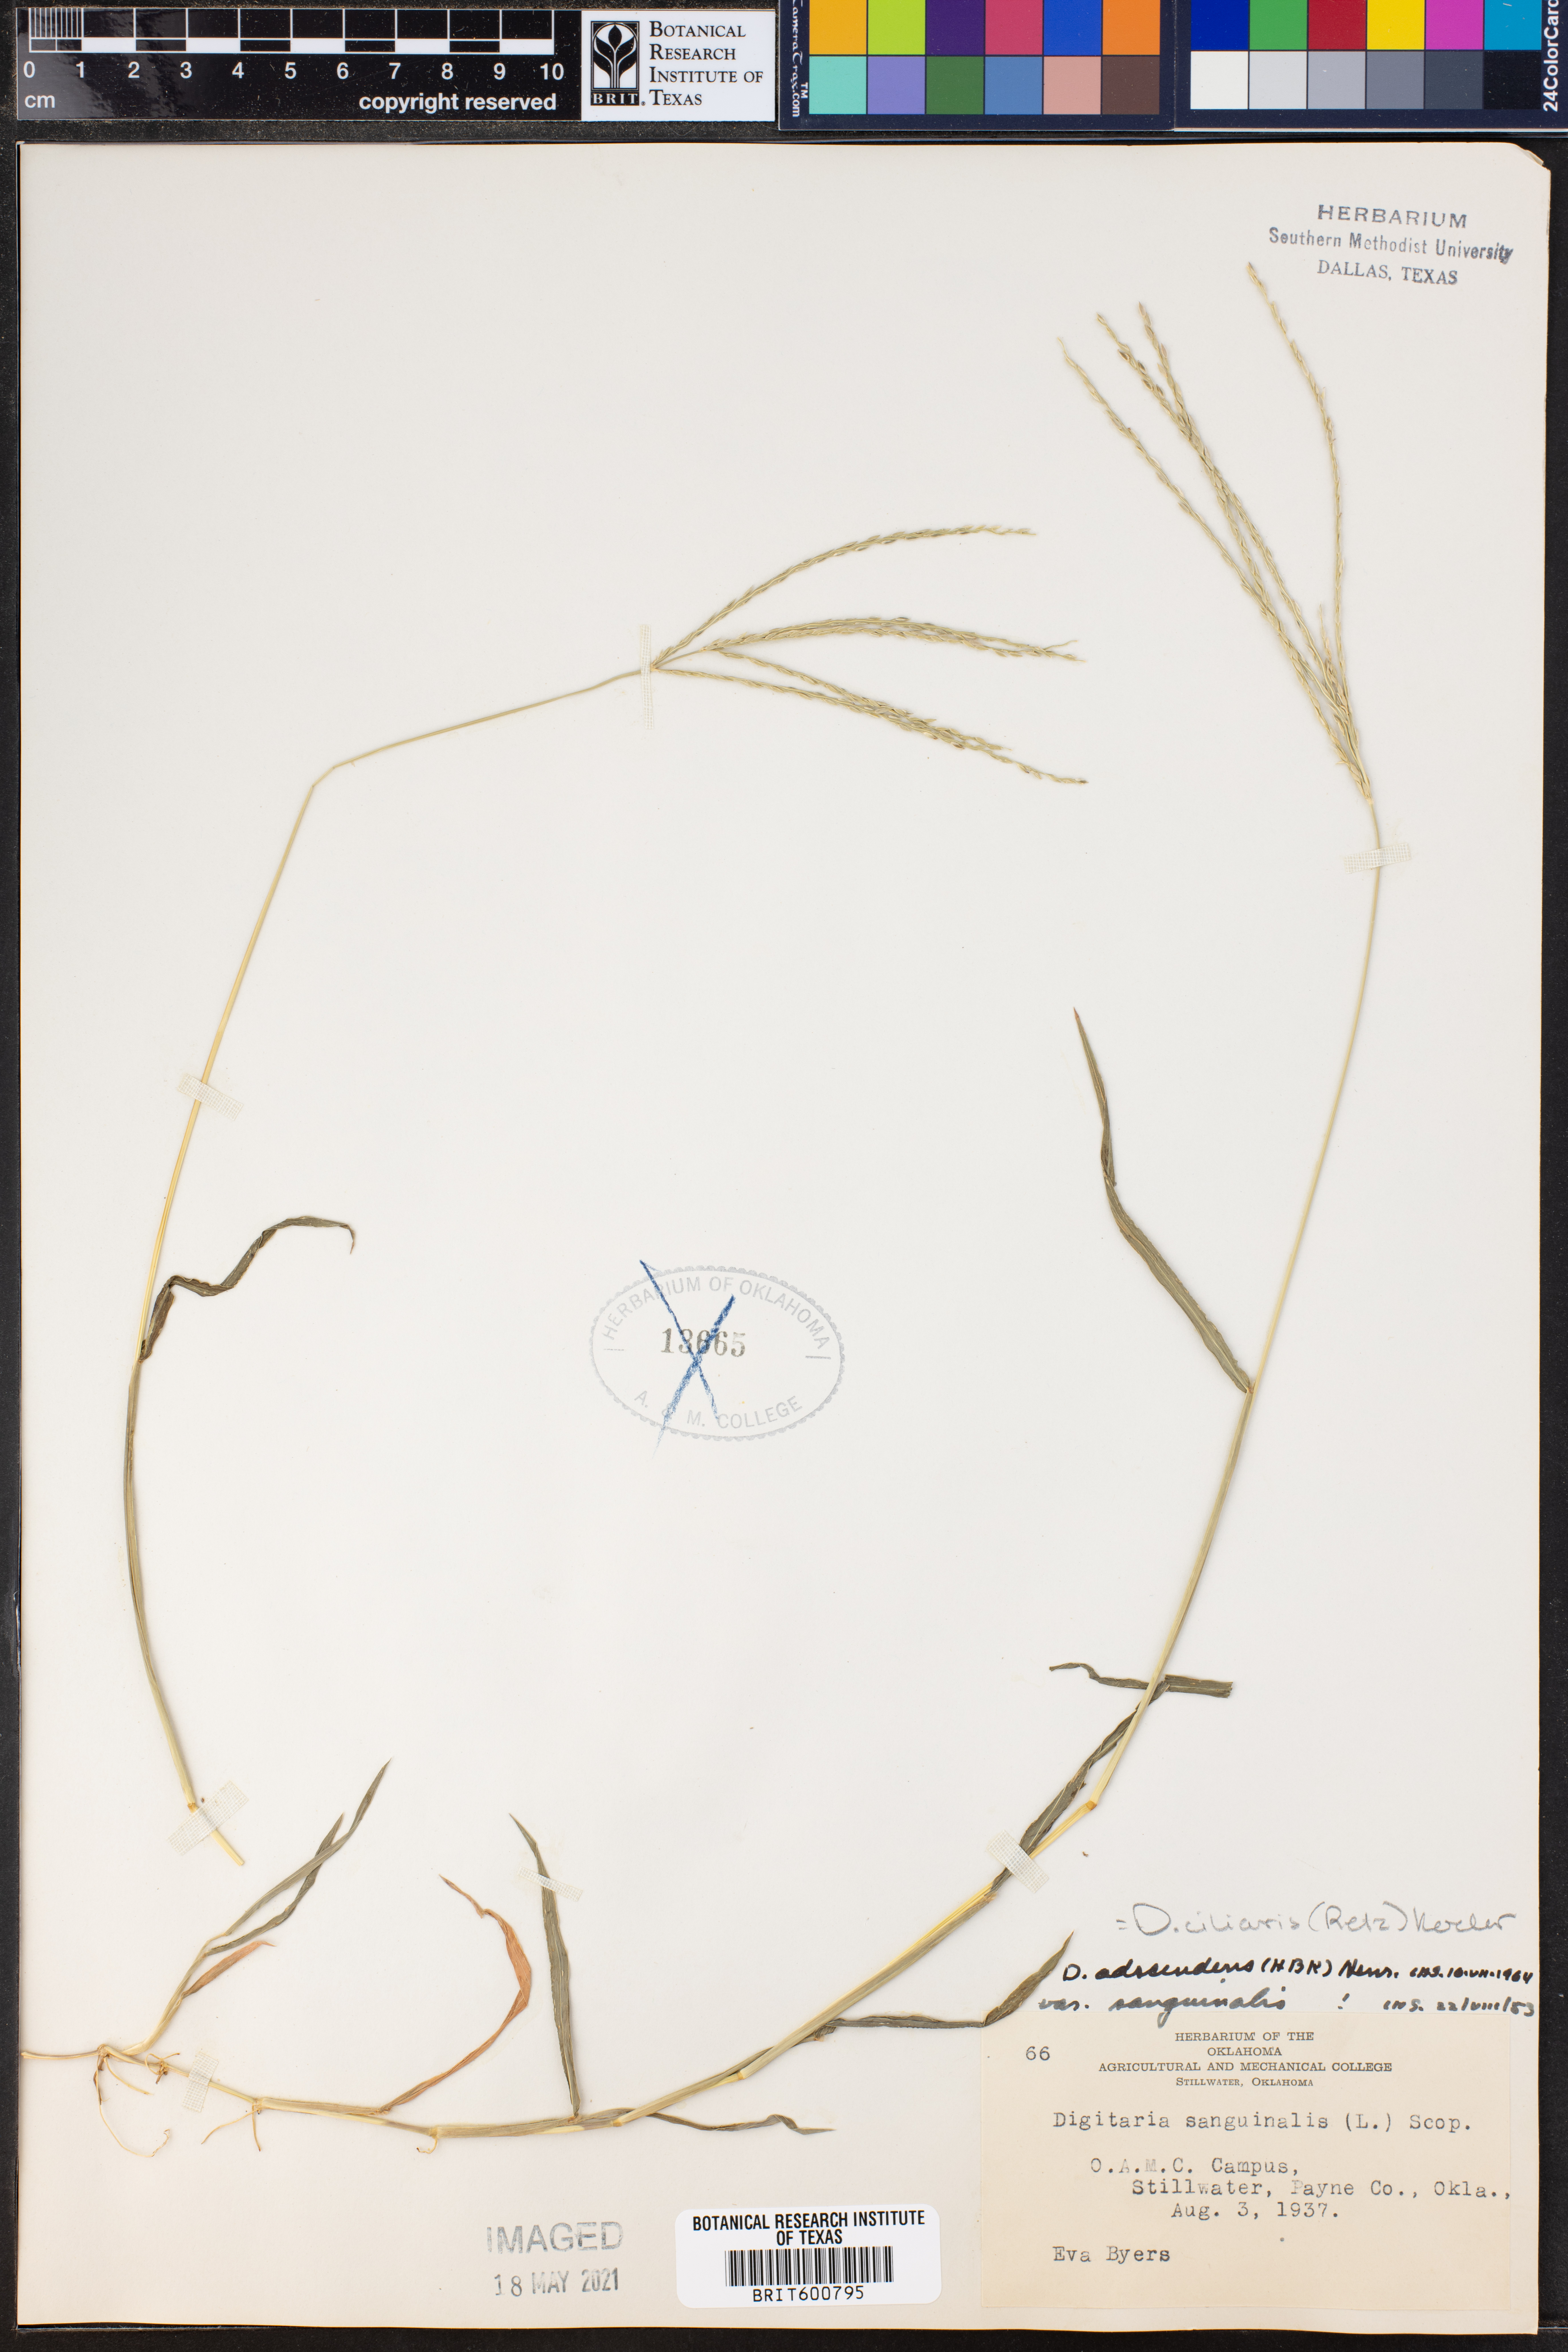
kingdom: Plantae
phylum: Tracheophyta
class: Liliopsida
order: Poales
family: Poaceae
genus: Digitaria
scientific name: Digitaria ciliaris
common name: Tropical finger-grass
